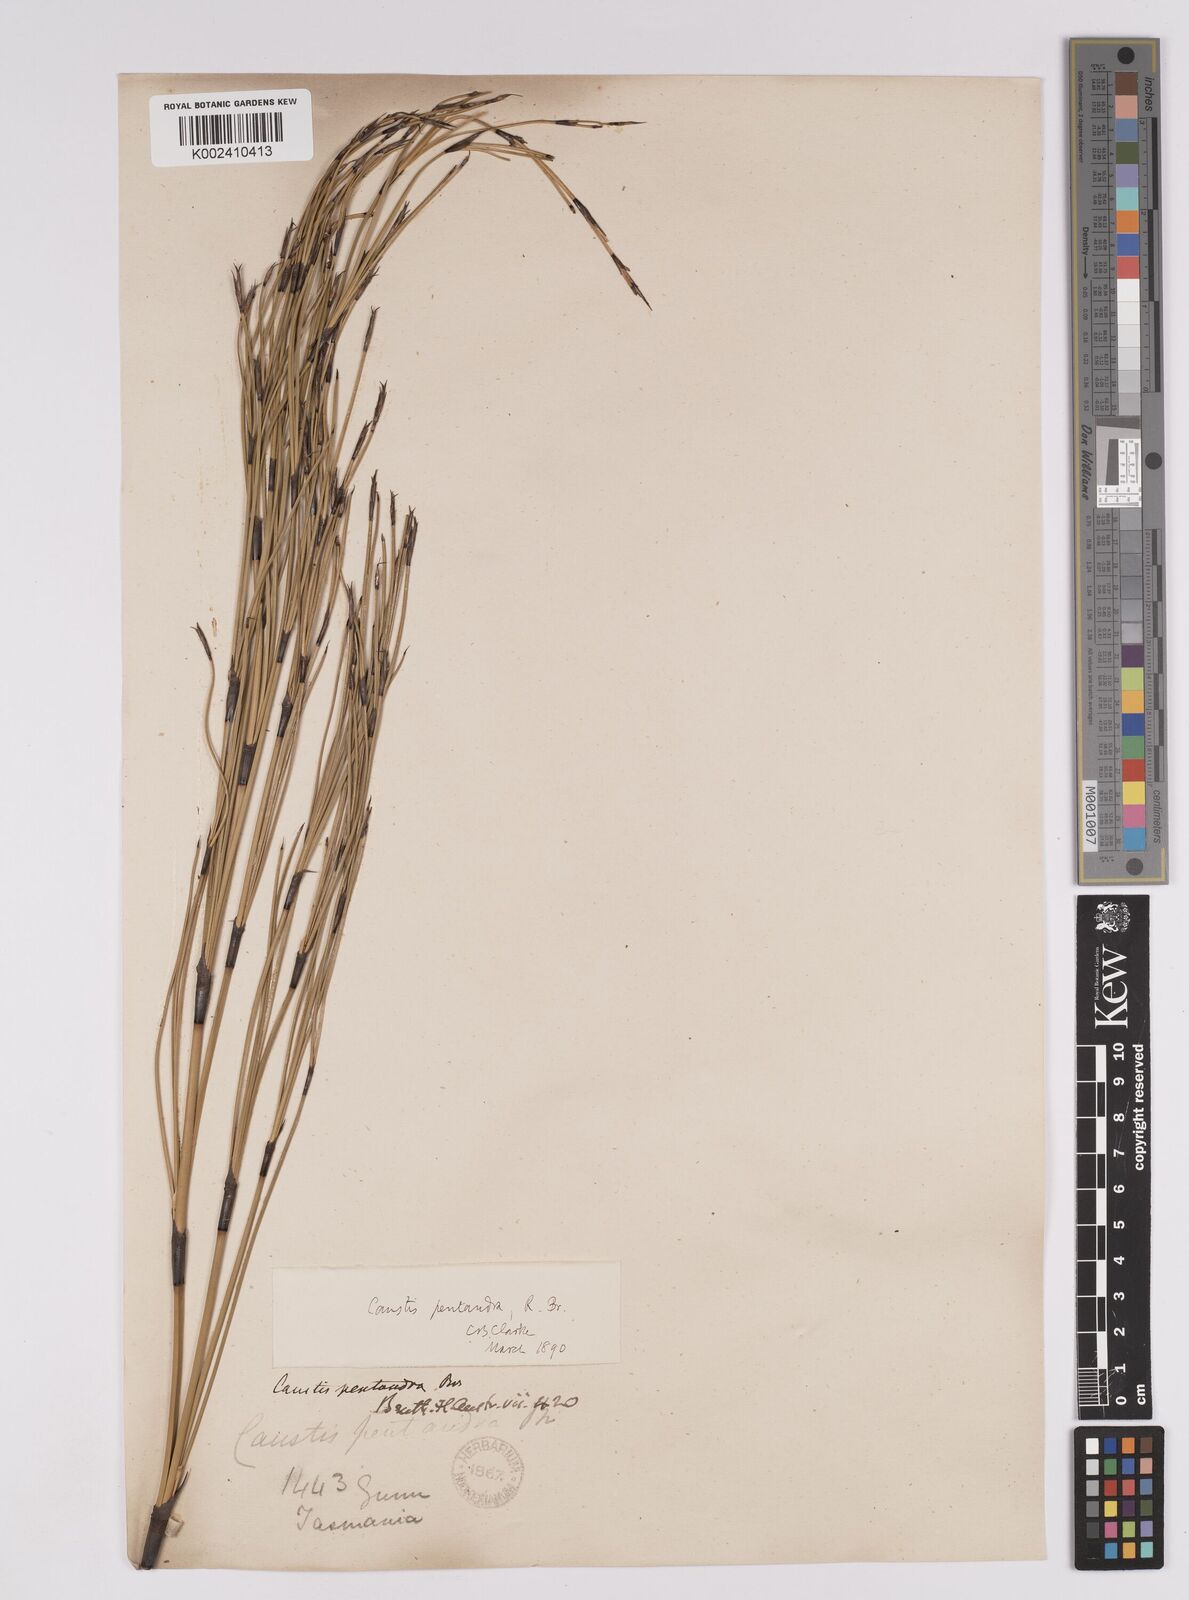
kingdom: Plantae
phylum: Tracheophyta
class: Liliopsida
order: Poales
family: Cyperaceae
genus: Caustis
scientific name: Caustis pentandra
